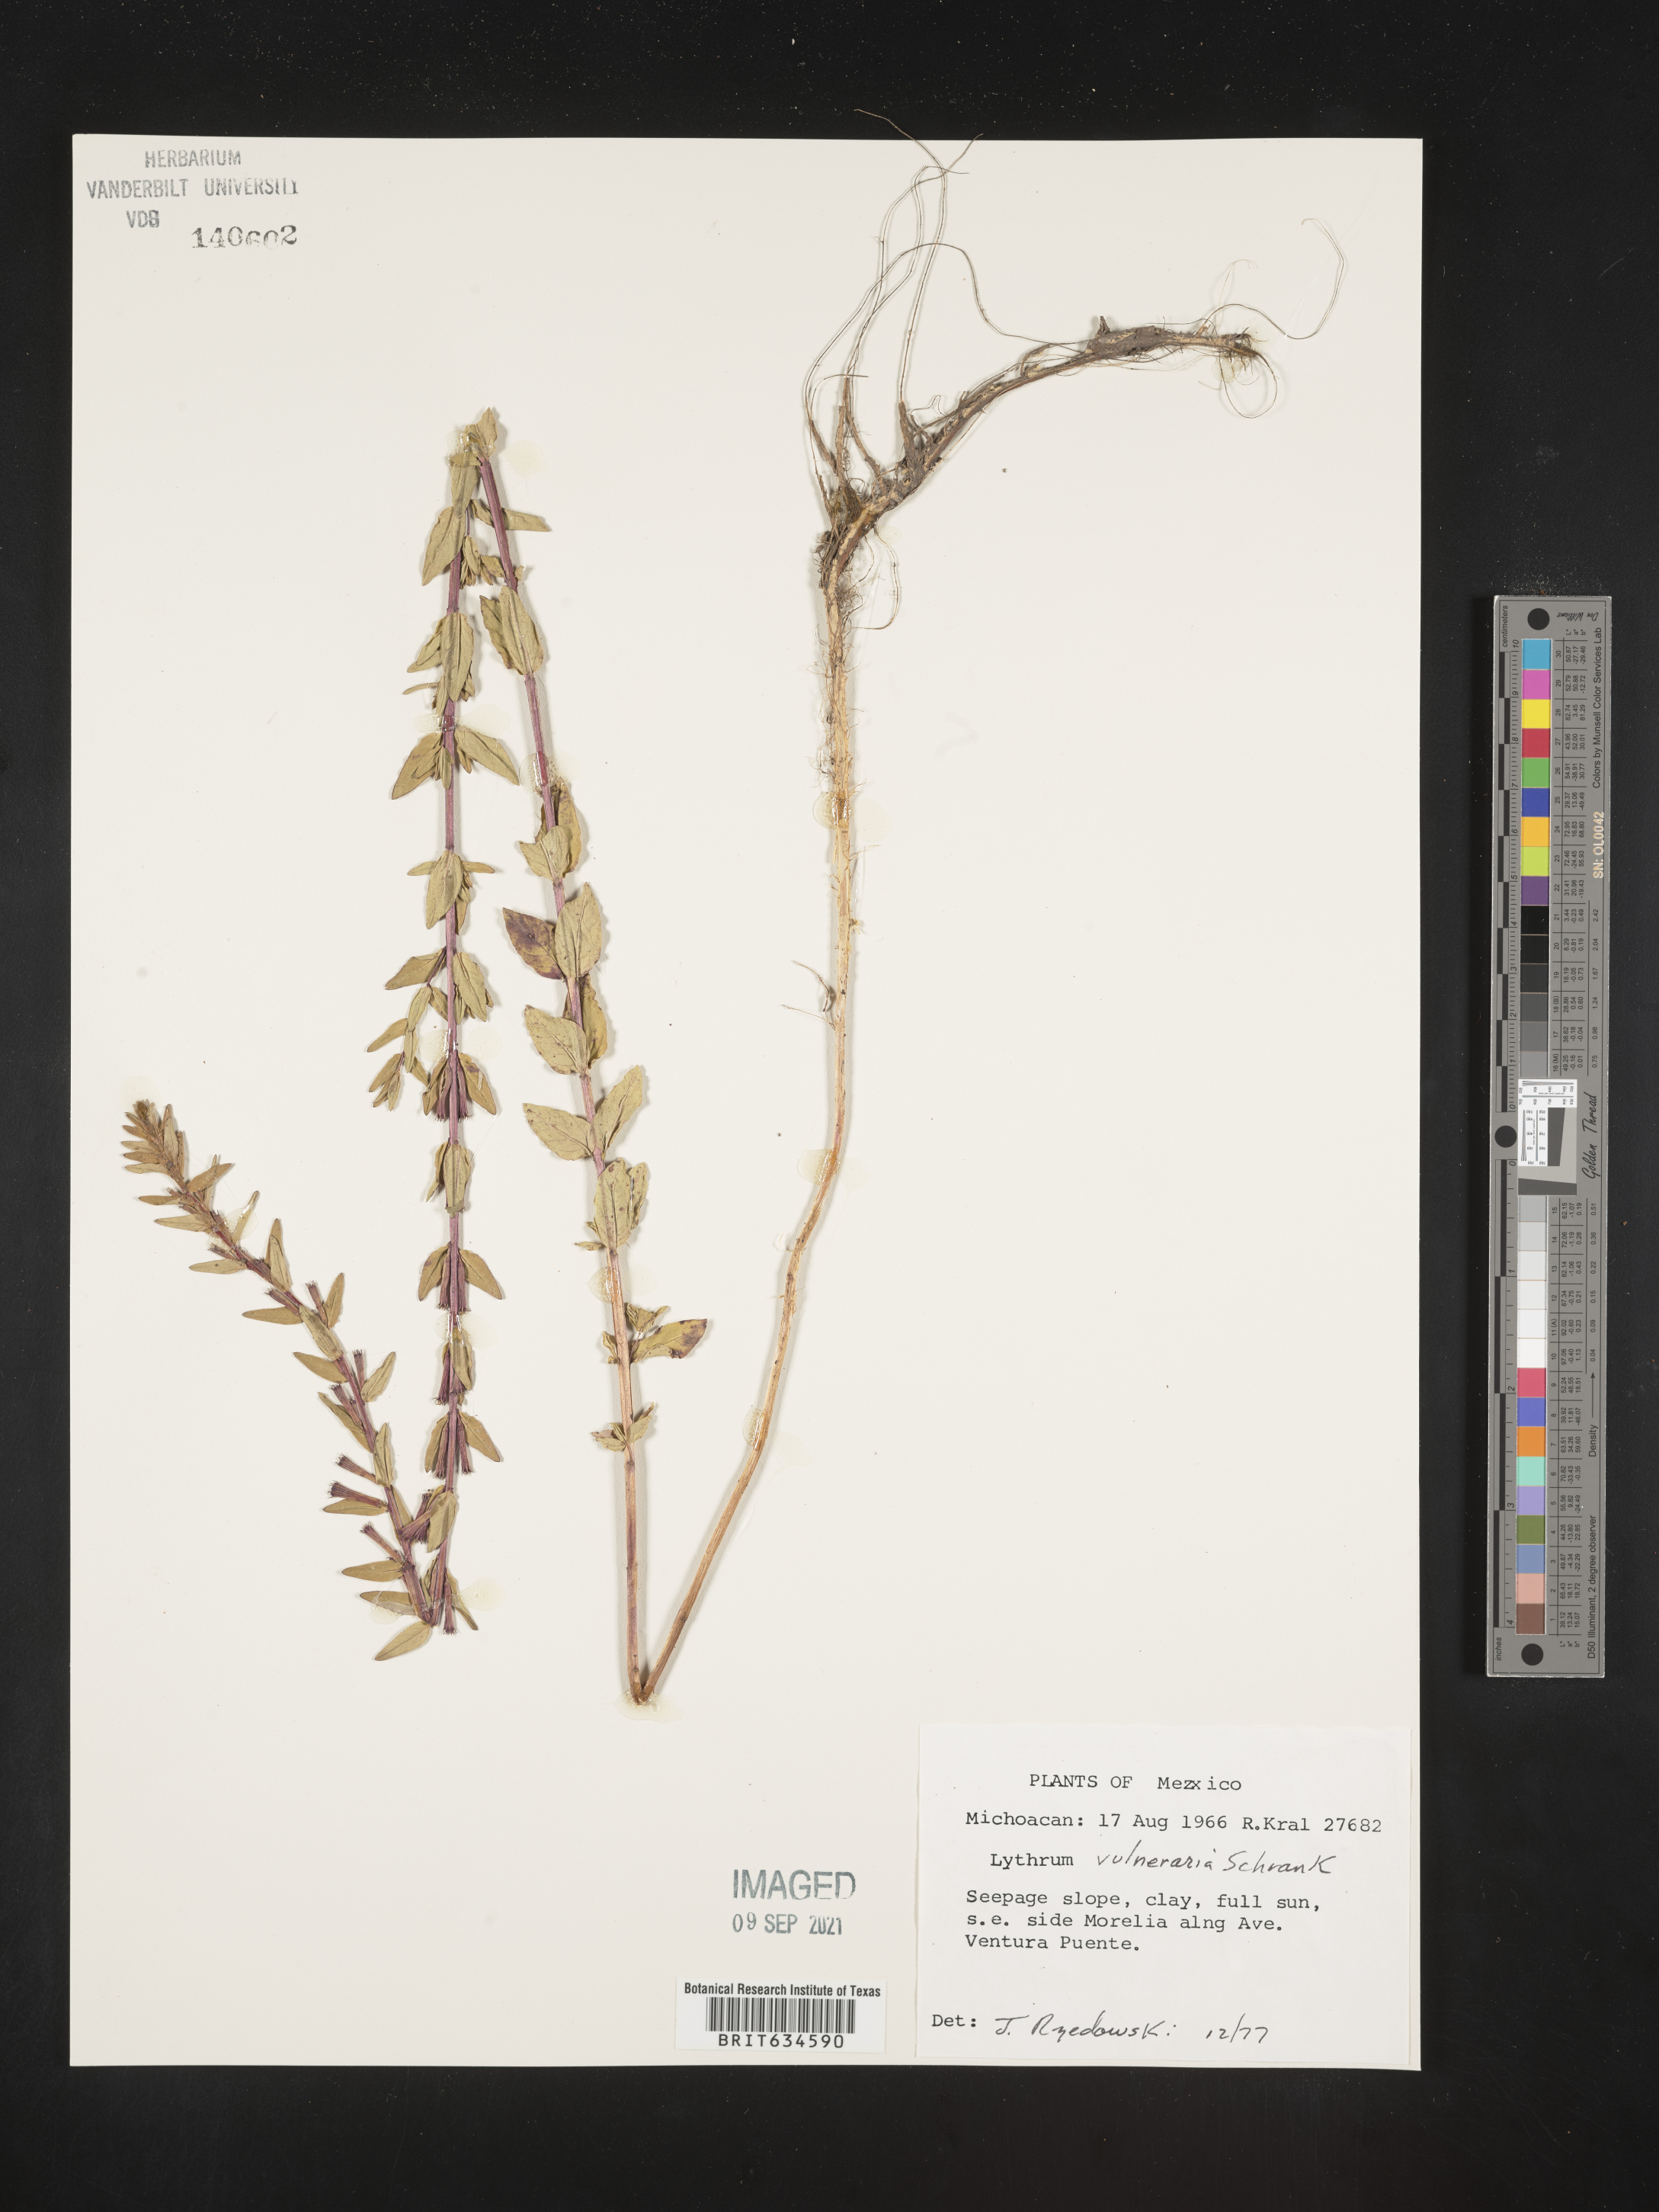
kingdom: Plantae
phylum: Tracheophyta
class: Magnoliopsida
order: Myrtales
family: Lythraceae
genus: Lythrum
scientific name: Lythrum
